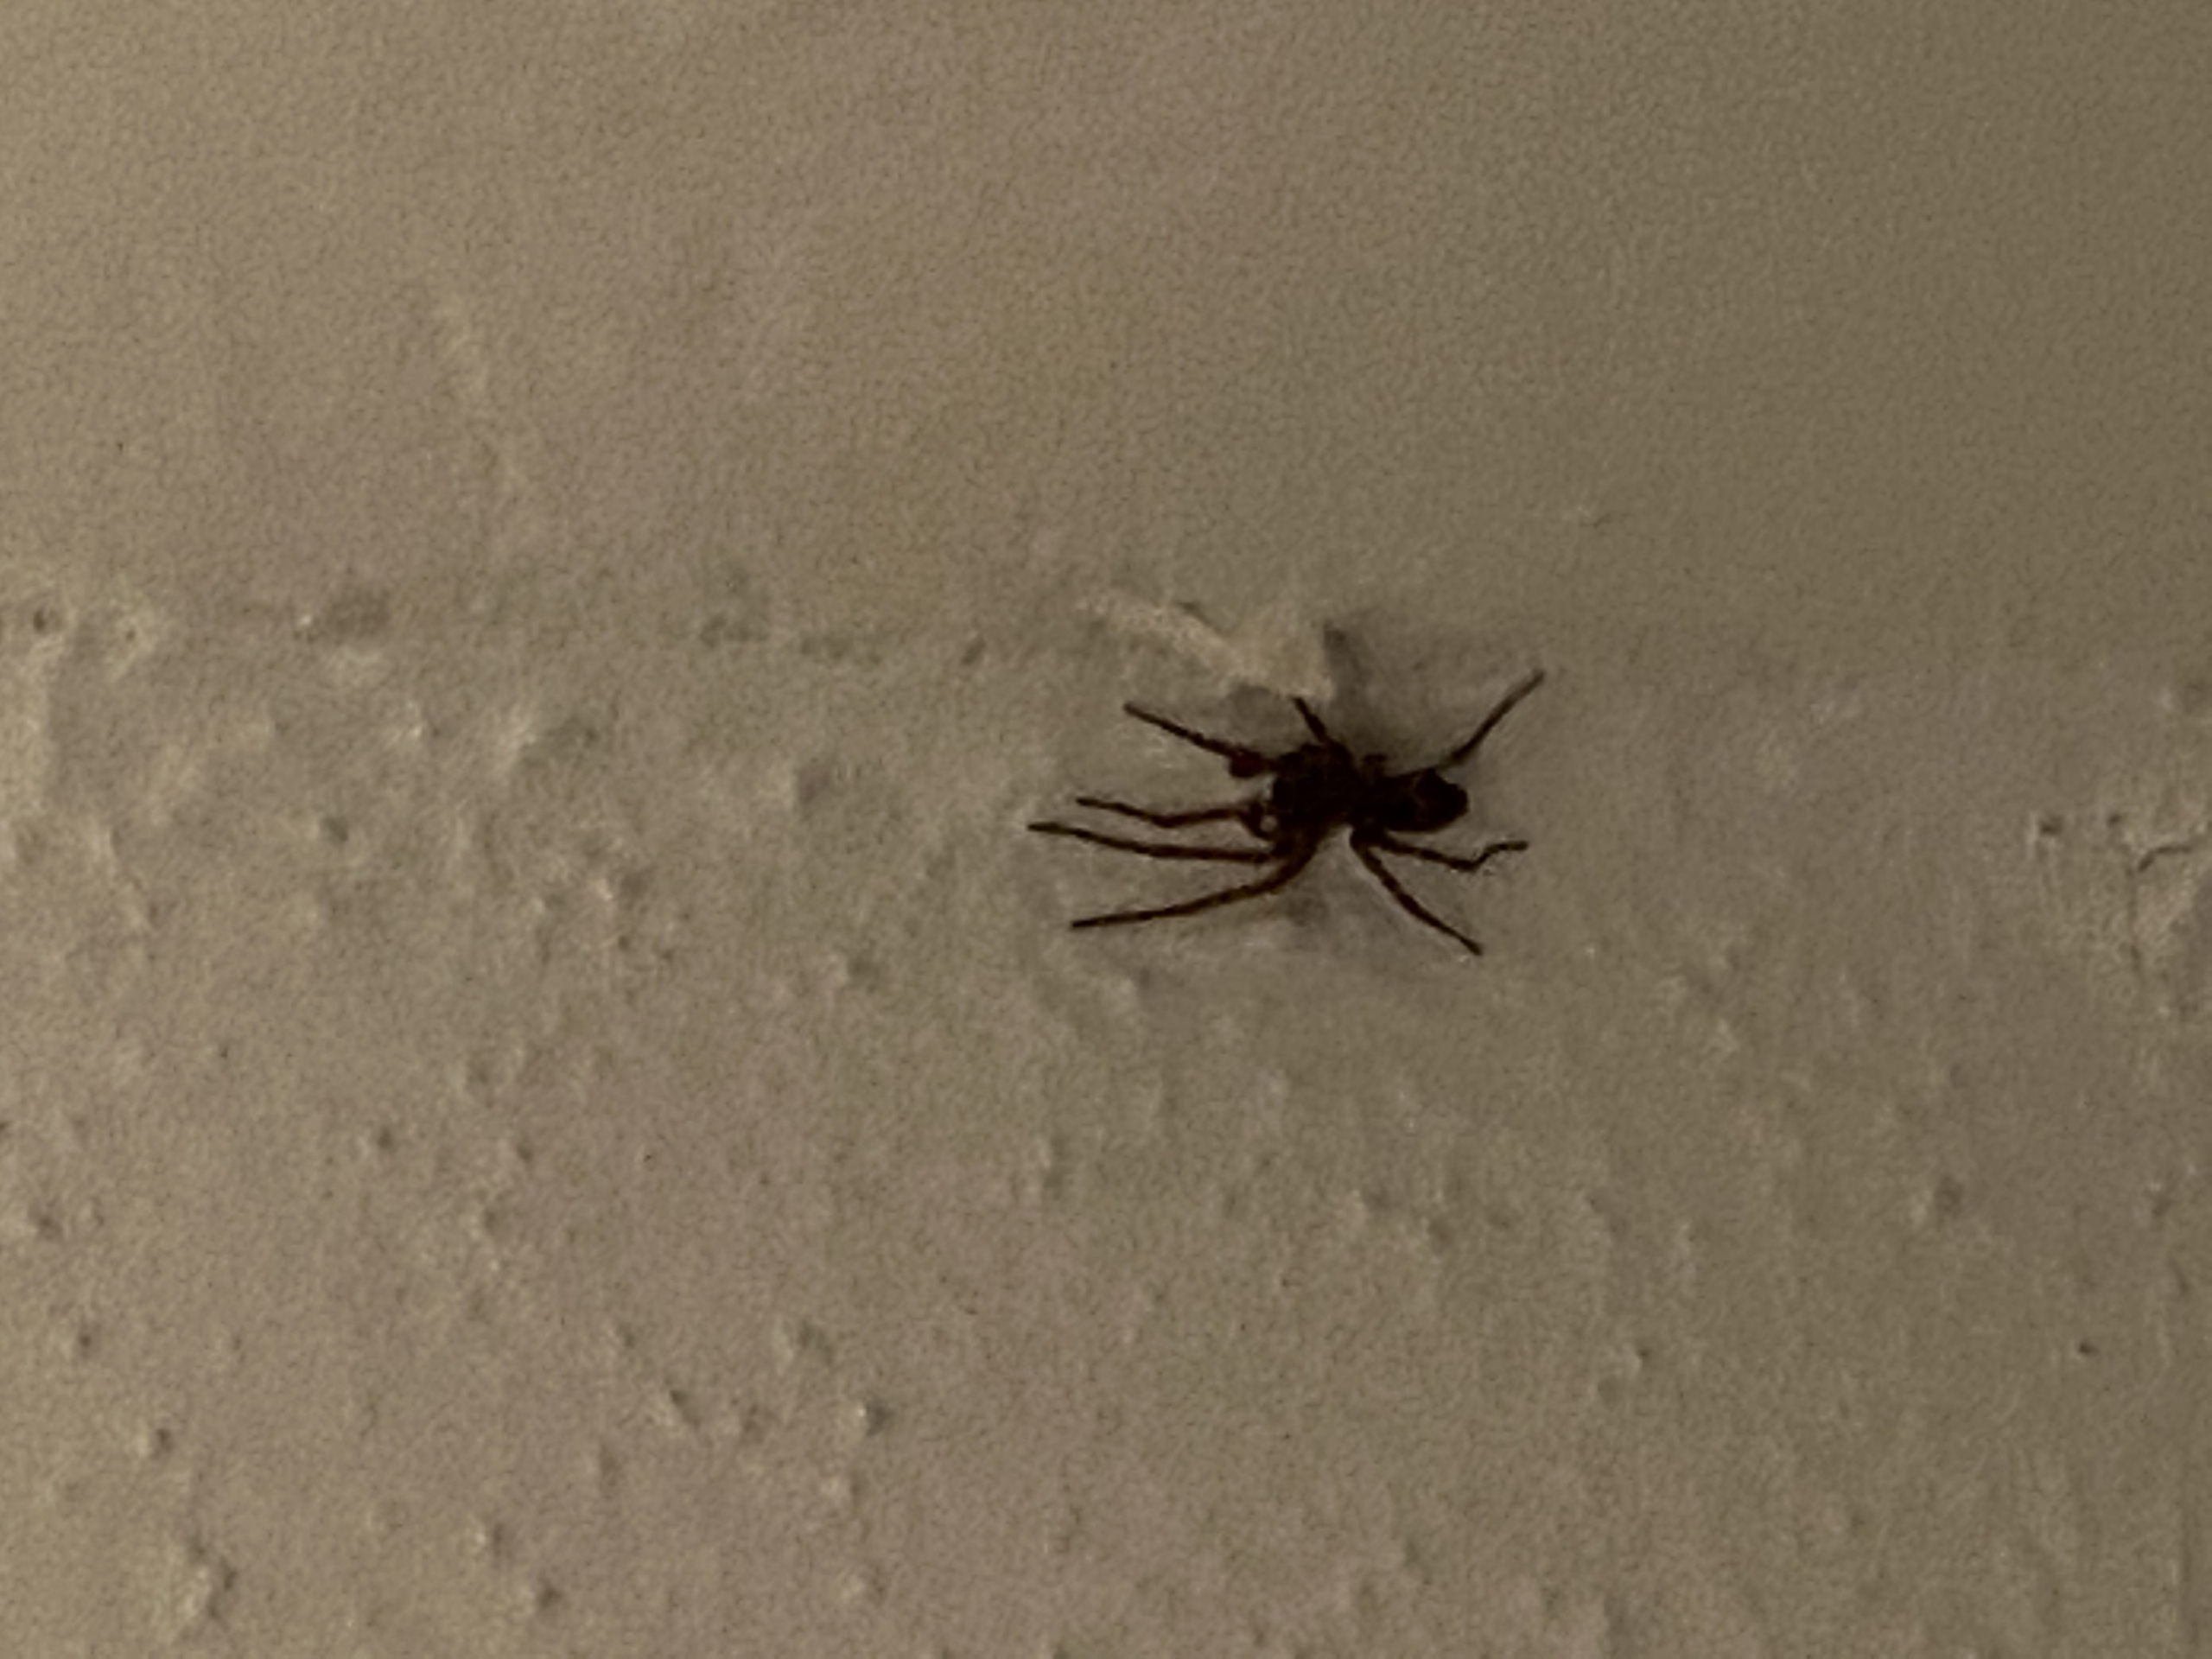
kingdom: Animalia
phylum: Arthropoda
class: Arachnida
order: Araneae
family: Amaurobiidae
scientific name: Amaurobiidae
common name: Huskartespindere
